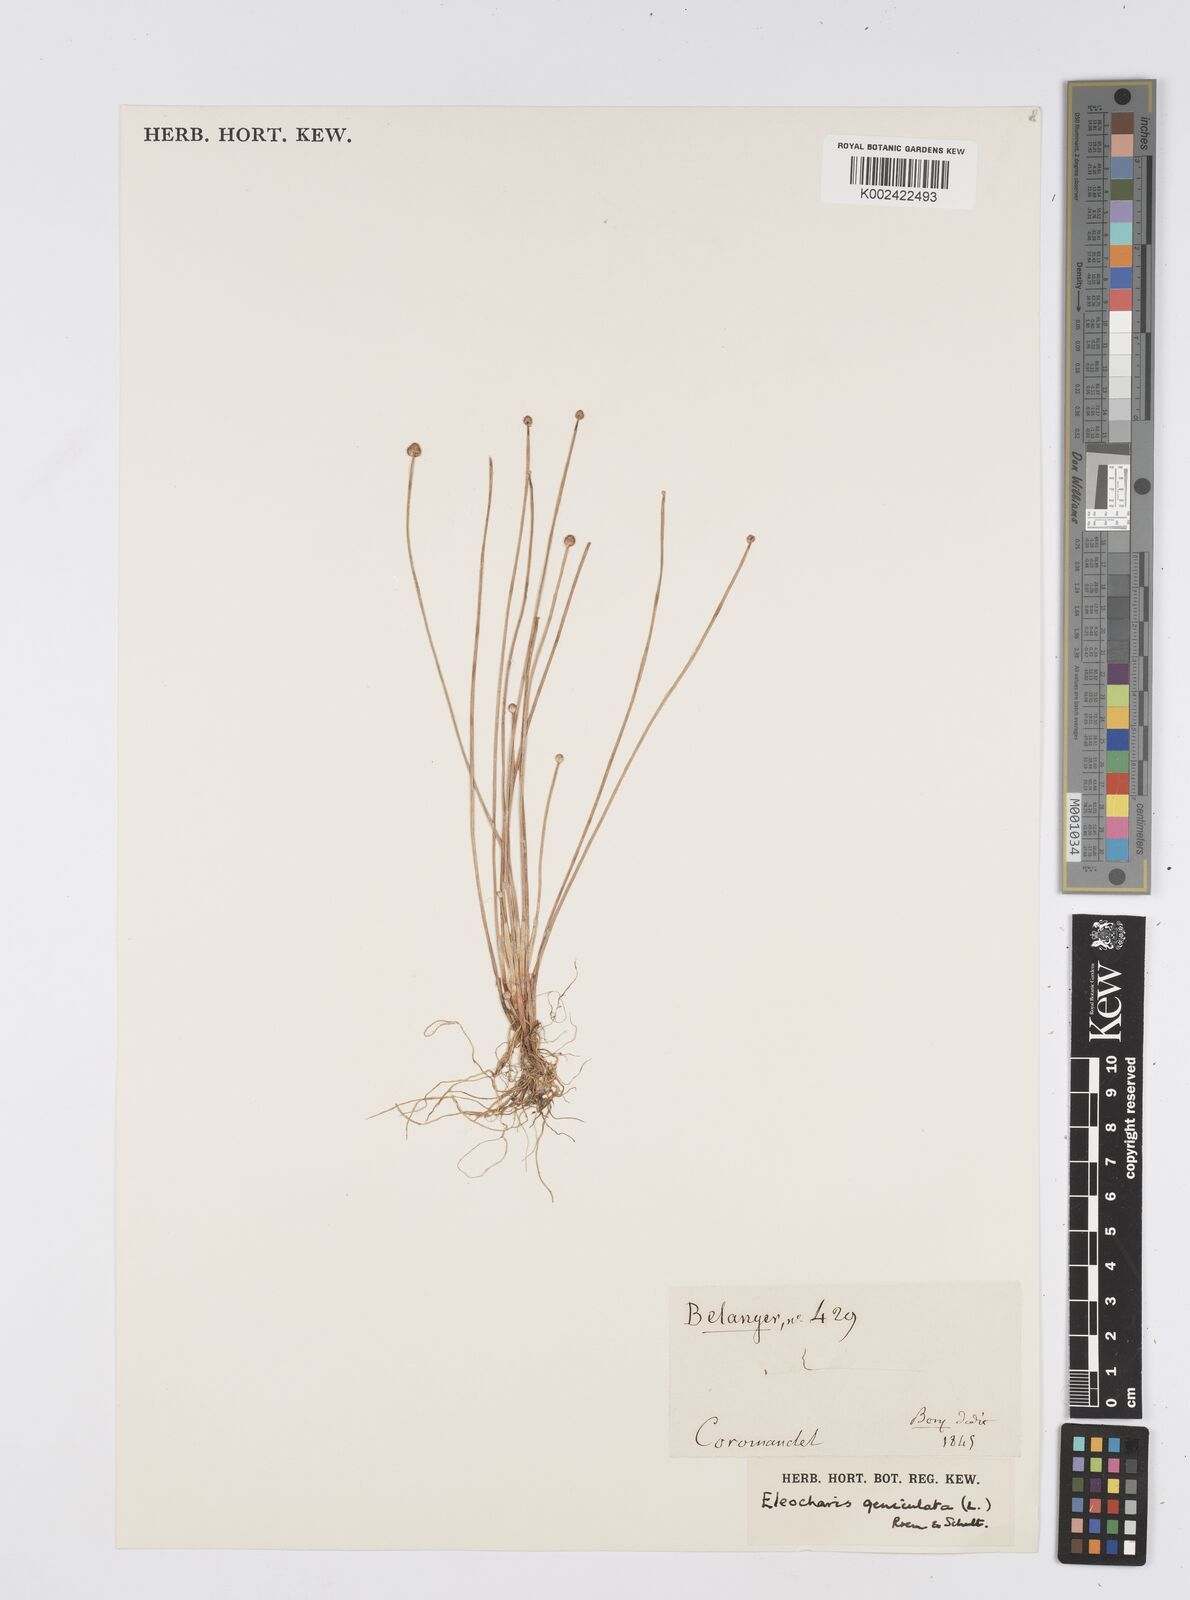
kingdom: Plantae
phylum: Tracheophyta
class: Liliopsida
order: Poales
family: Cyperaceae
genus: Eleocharis
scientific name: Eleocharis geniculata
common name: Canada spikesedge
